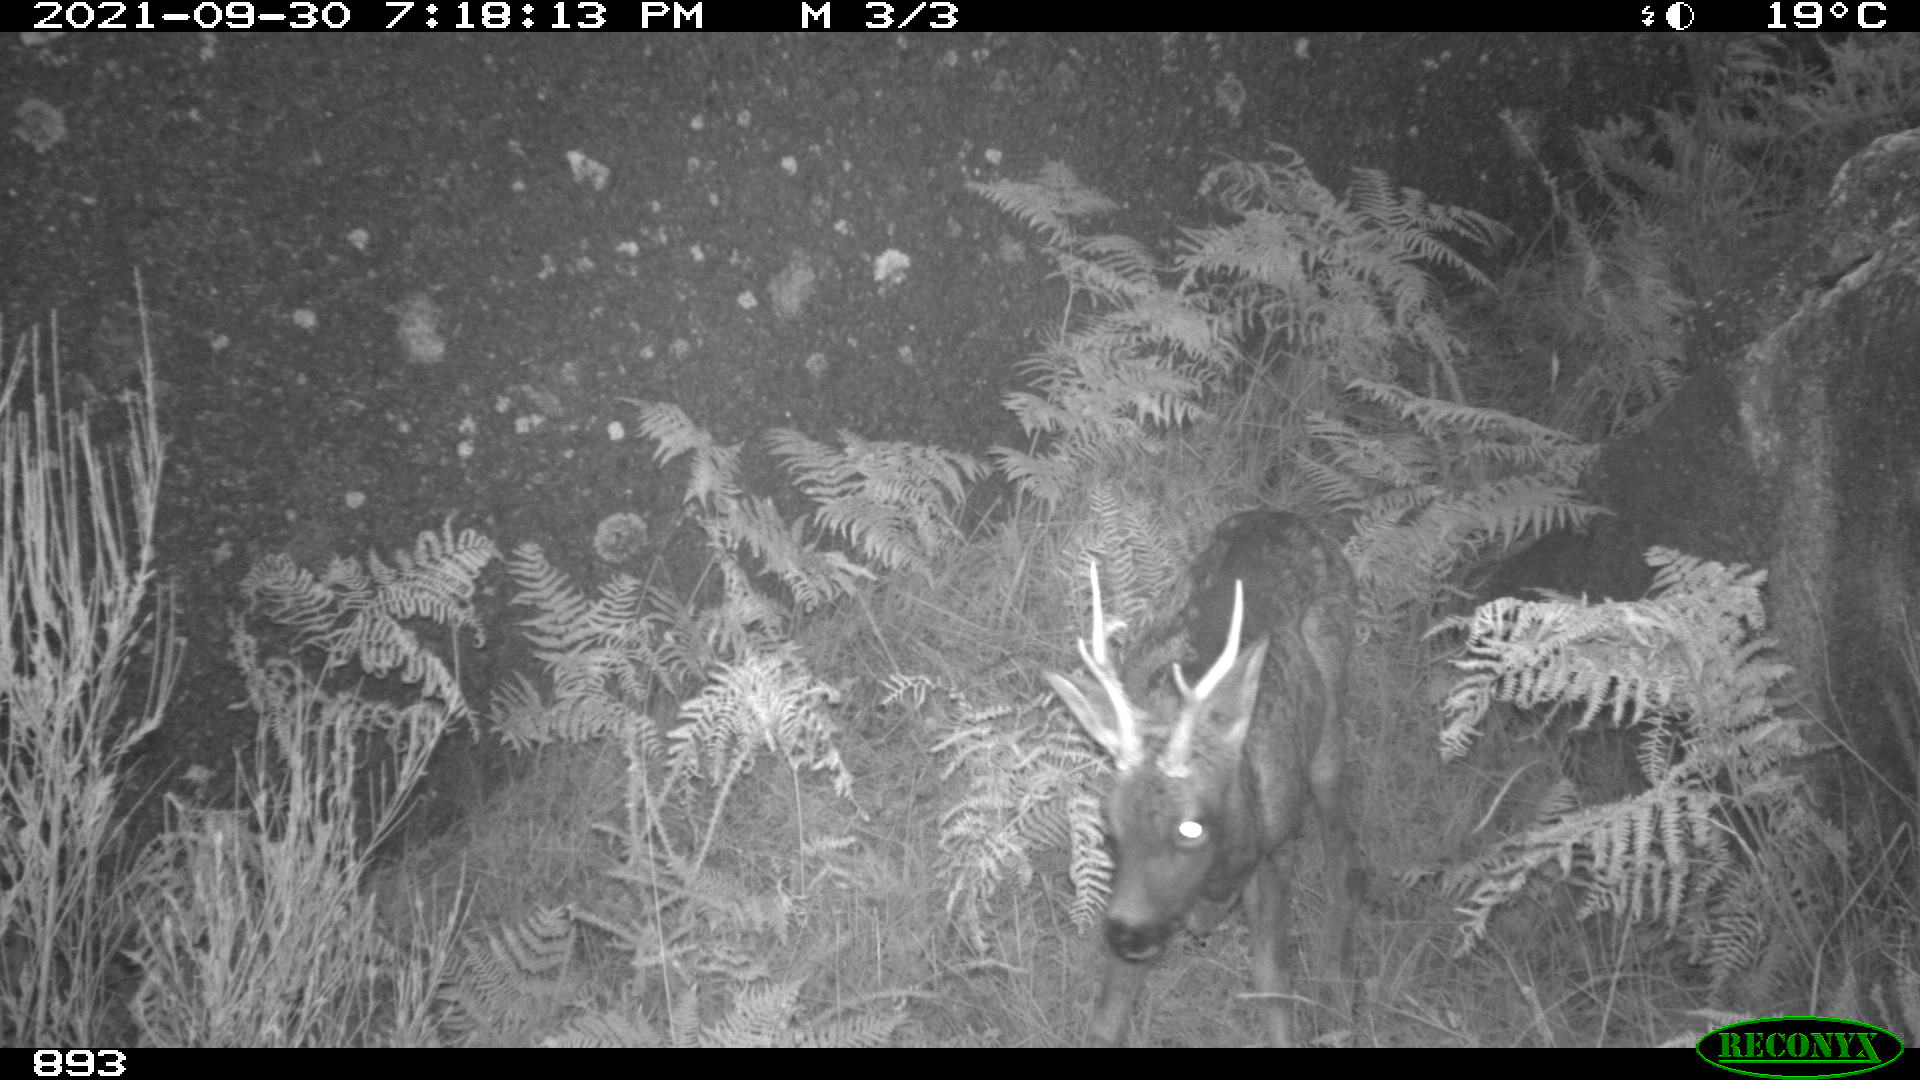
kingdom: Animalia
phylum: Chordata
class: Mammalia
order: Artiodactyla
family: Cervidae
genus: Capreolus
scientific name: Capreolus capreolus
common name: Western roe deer
